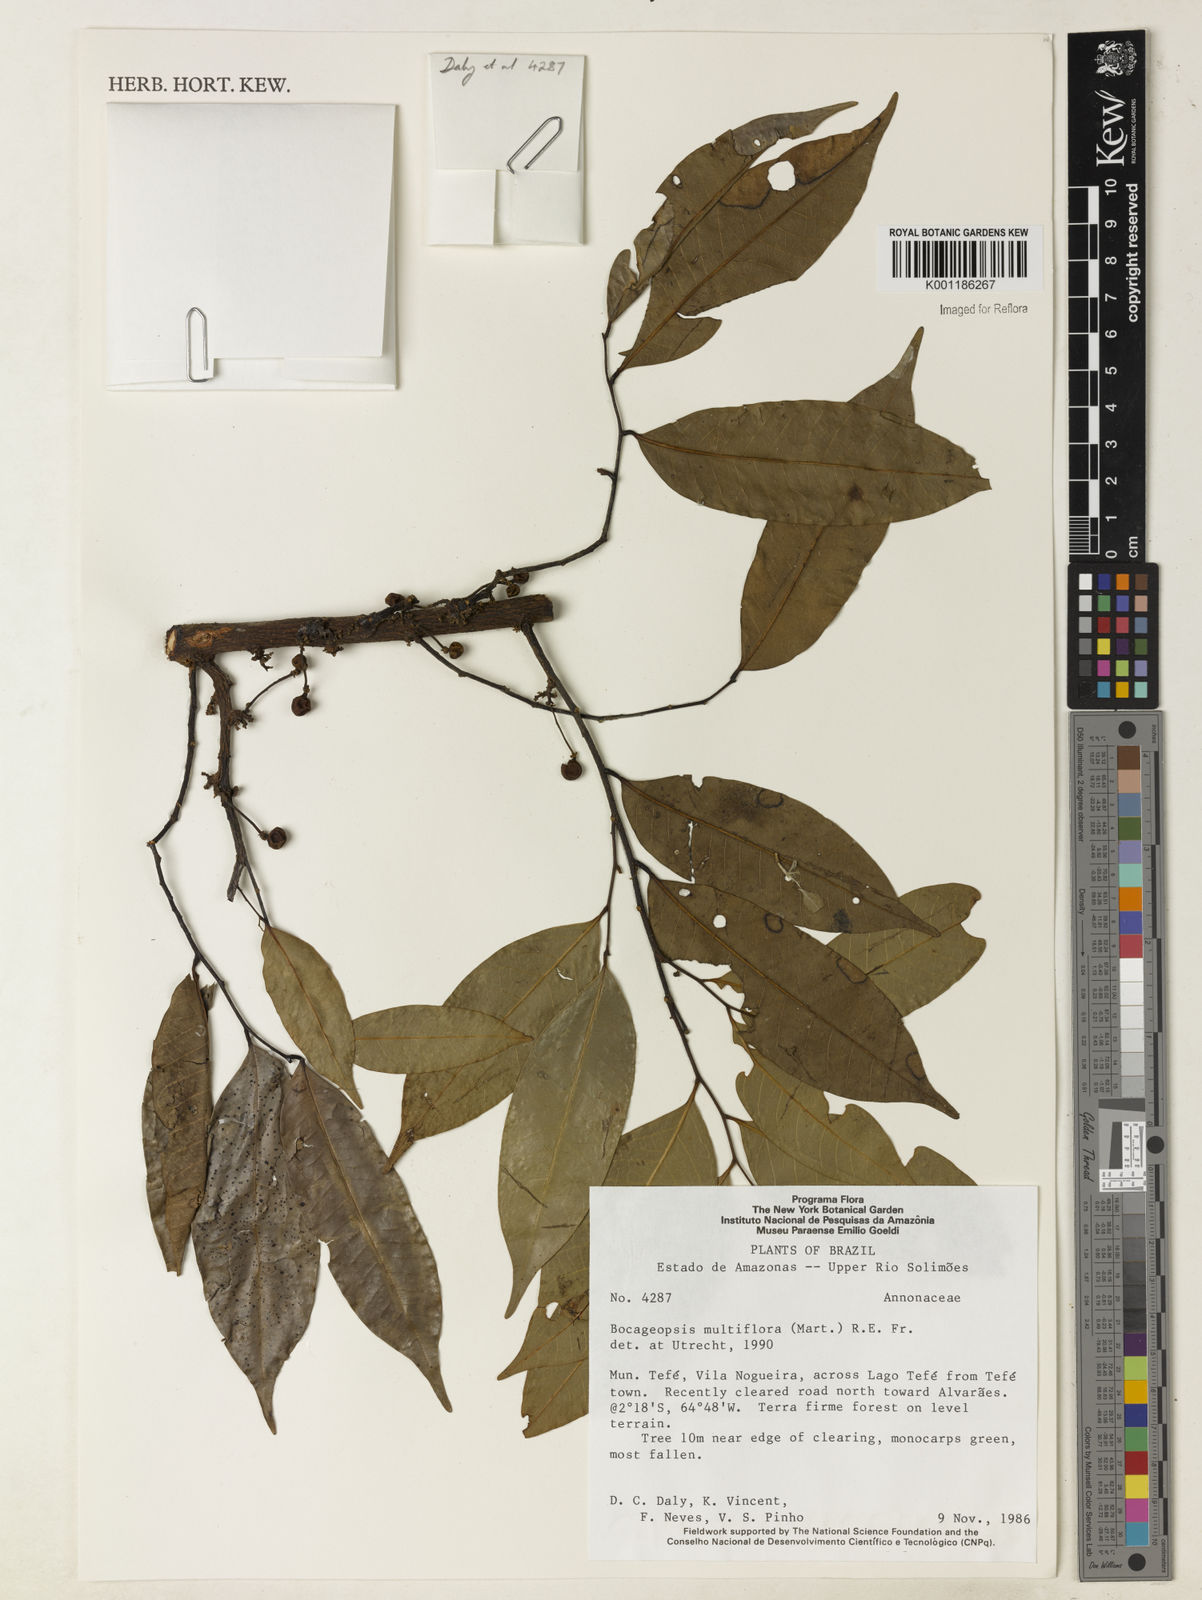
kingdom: Plantae
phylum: Tracheophyta
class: Magnoliopsida
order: Magnoliales
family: Annonaceae
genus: Bocageopsis
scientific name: Bocageopsis multiflora
